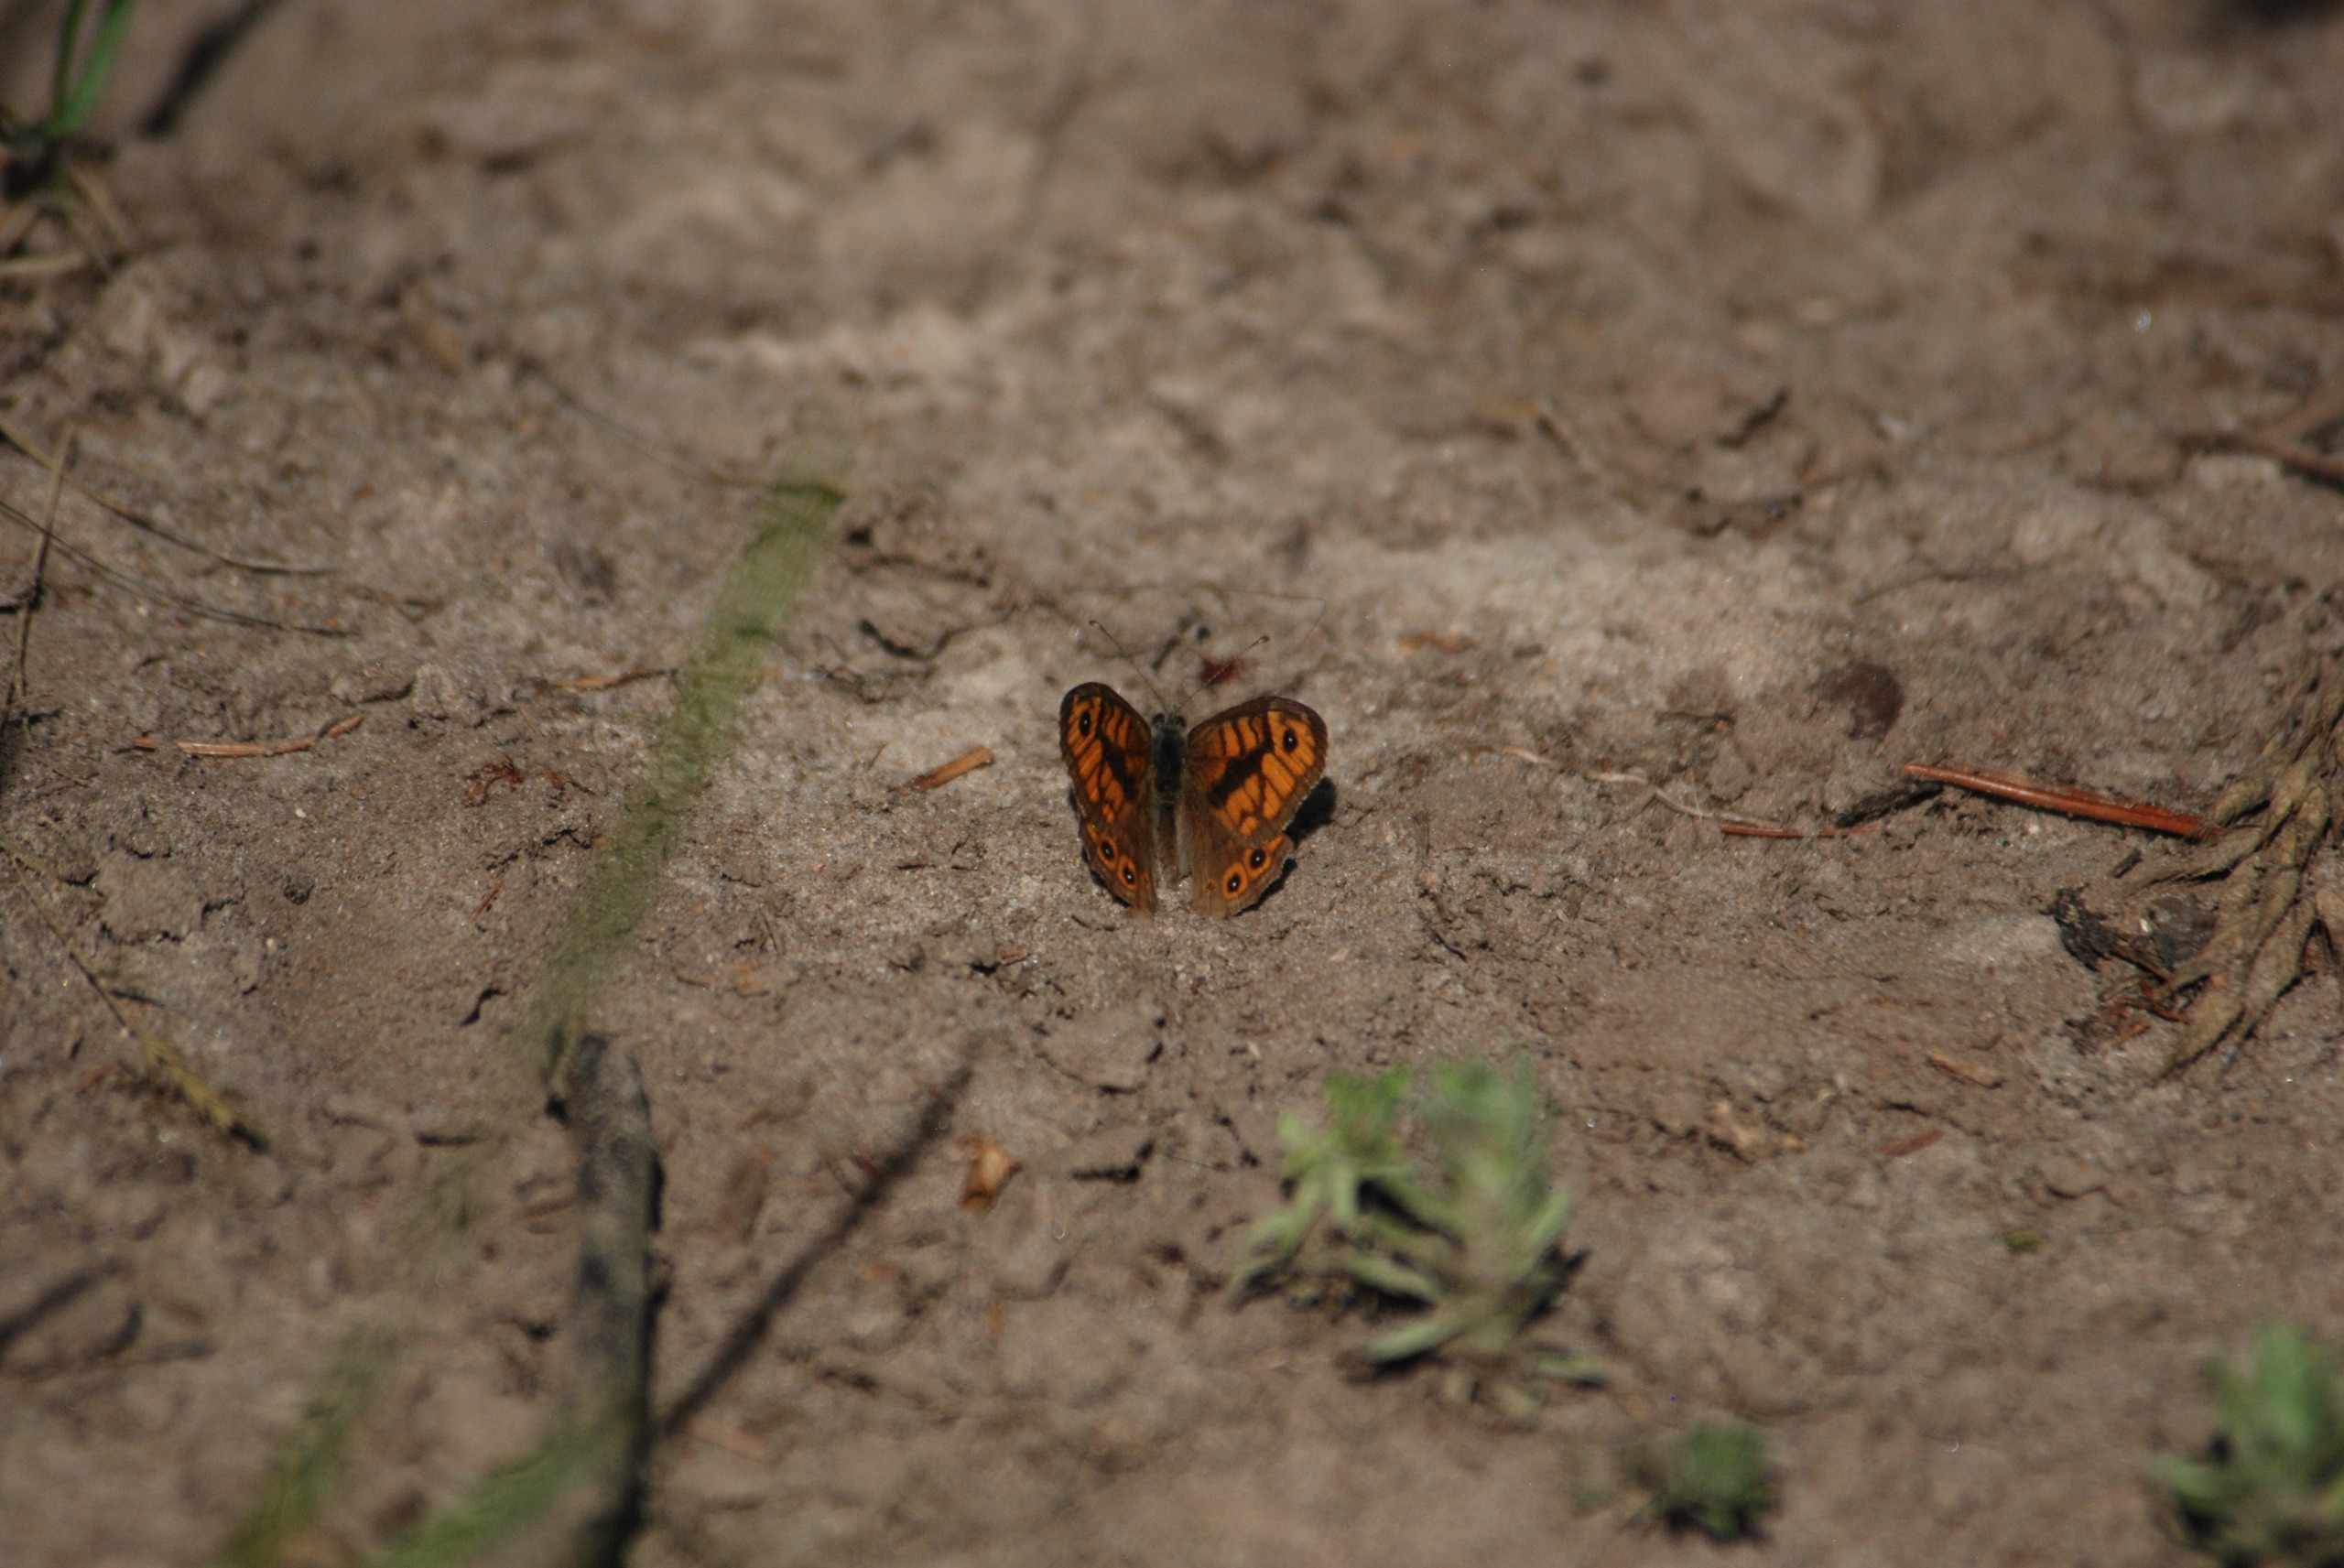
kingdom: Animalia
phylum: Arthropoda
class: Insecta
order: Lepidoptera
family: Nymphalidae
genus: Pararge
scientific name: Pararge Lasiommata megera
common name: Vejrandøje
